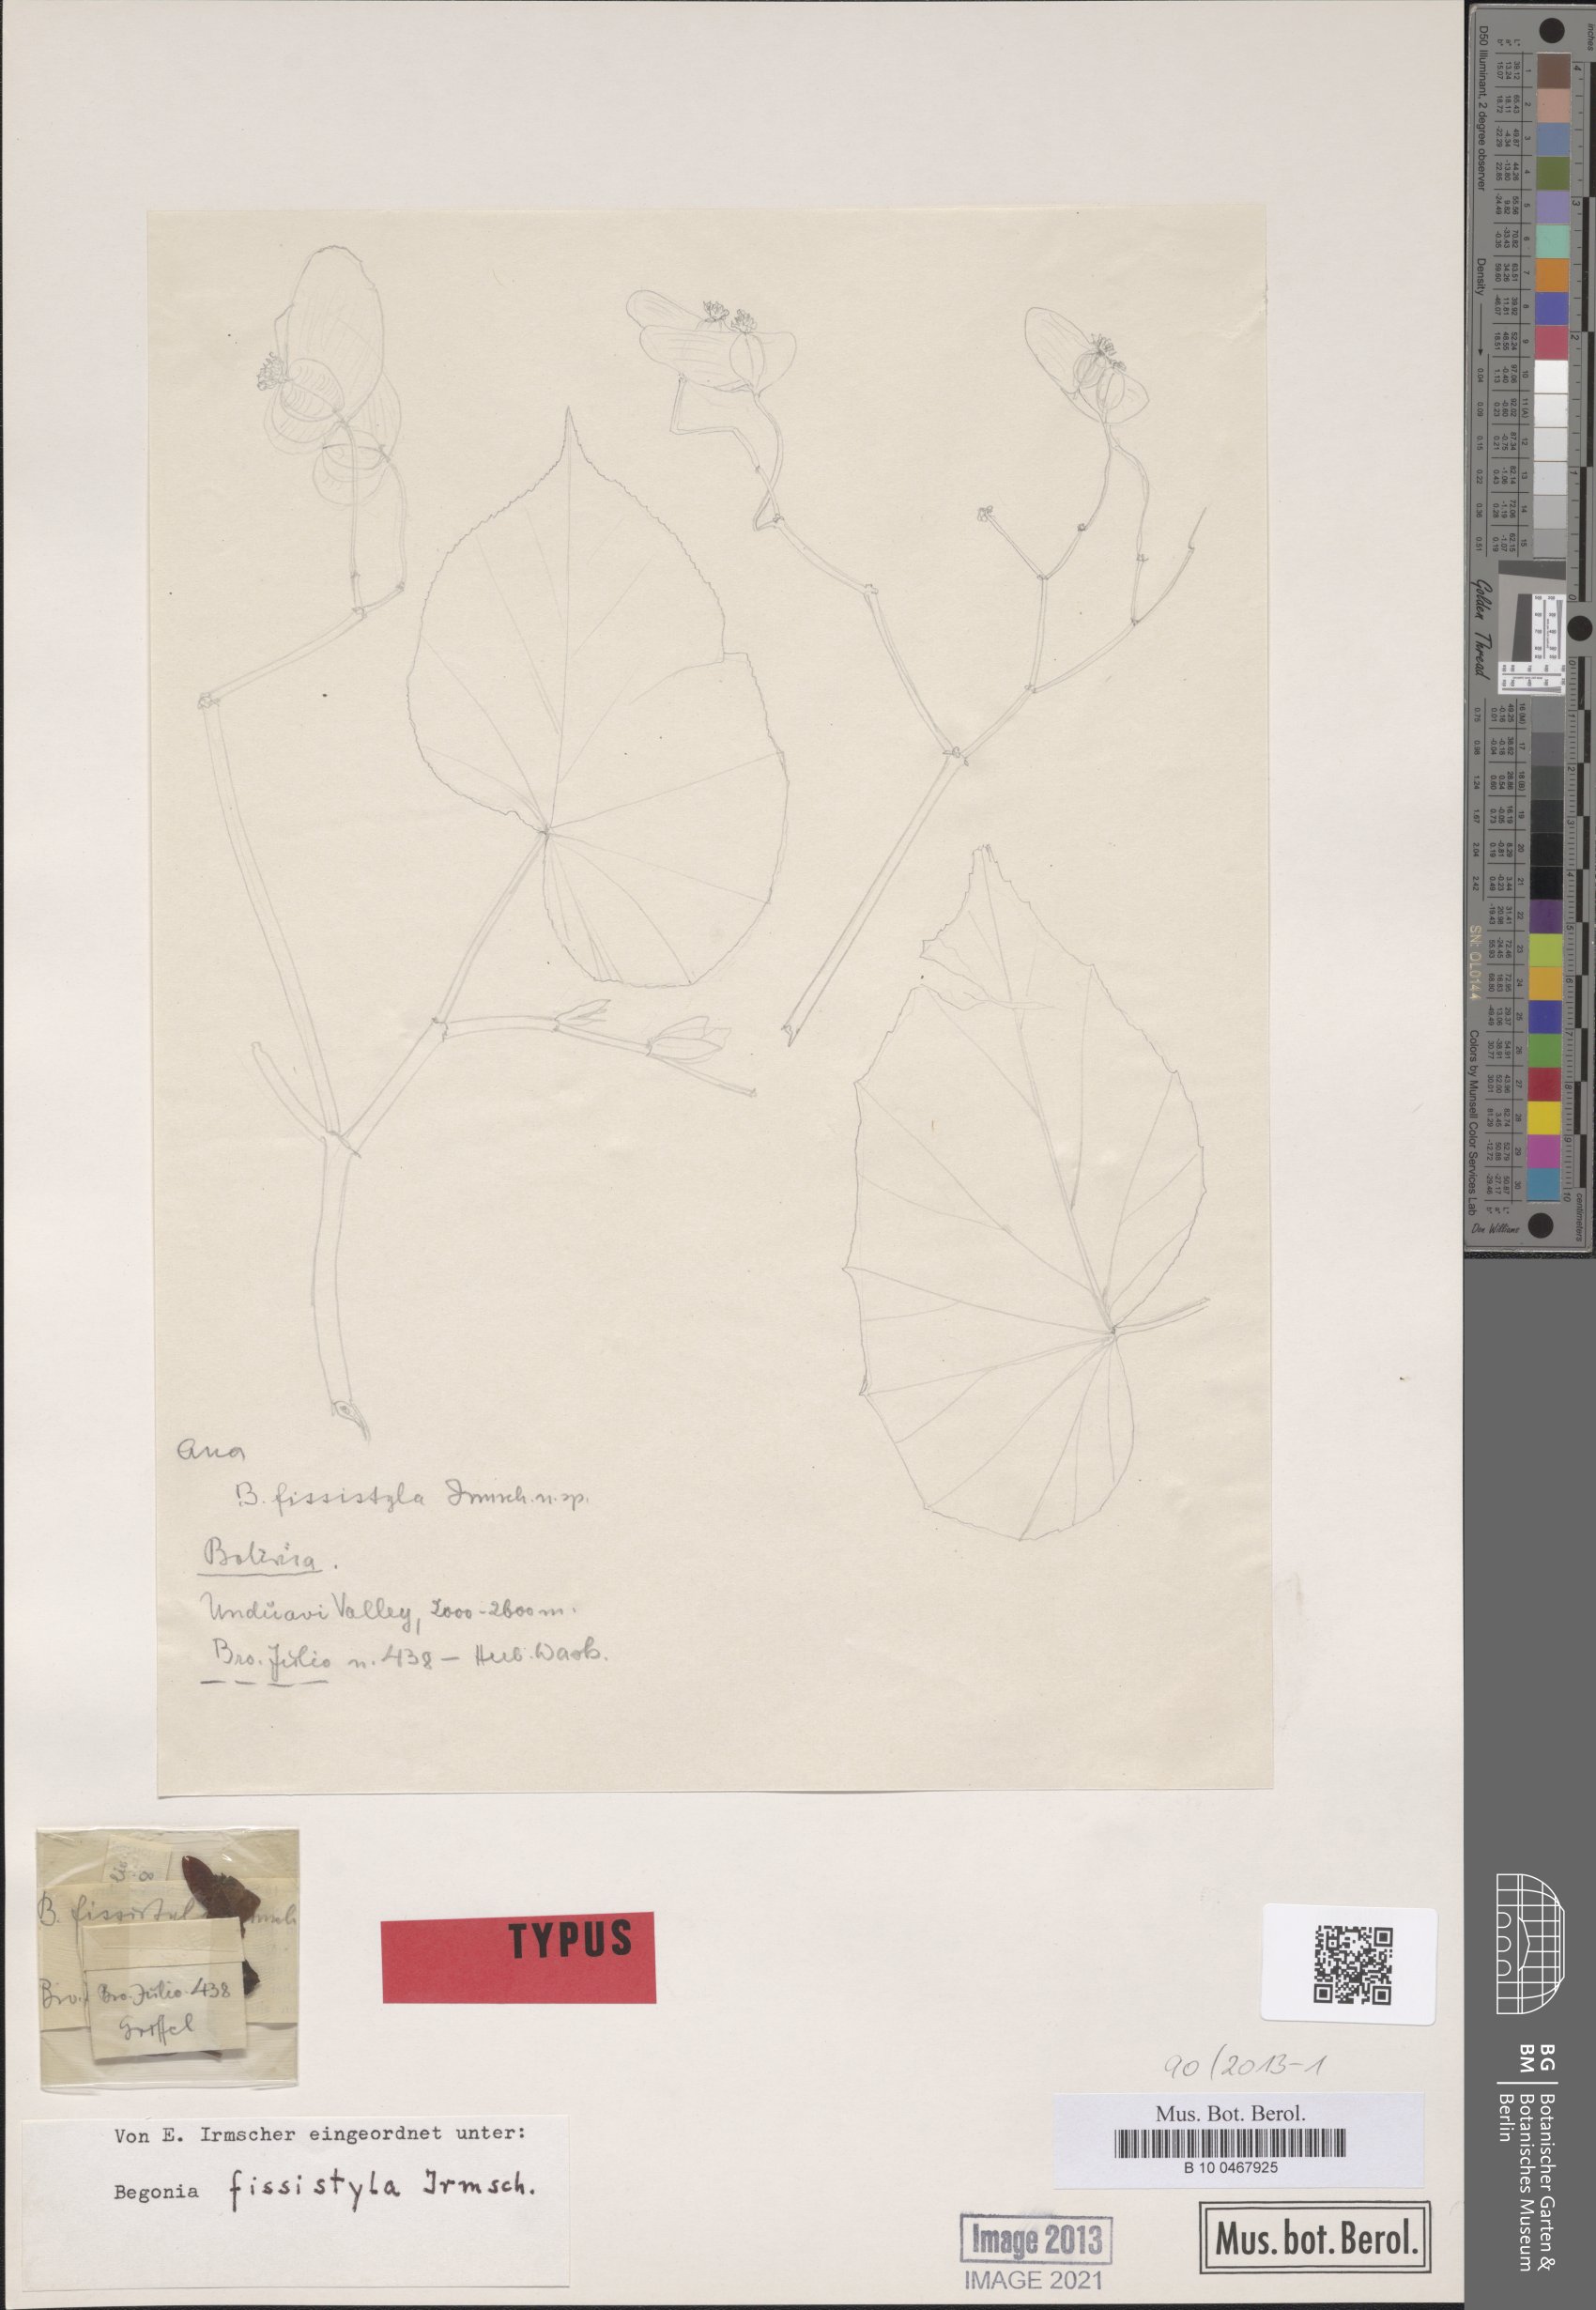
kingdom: Plantae
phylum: Tracheophyta
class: Magnoliopsida
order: Cucurbitales
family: Begoniaceae
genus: Begonia
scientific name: Begonia fissistyla
